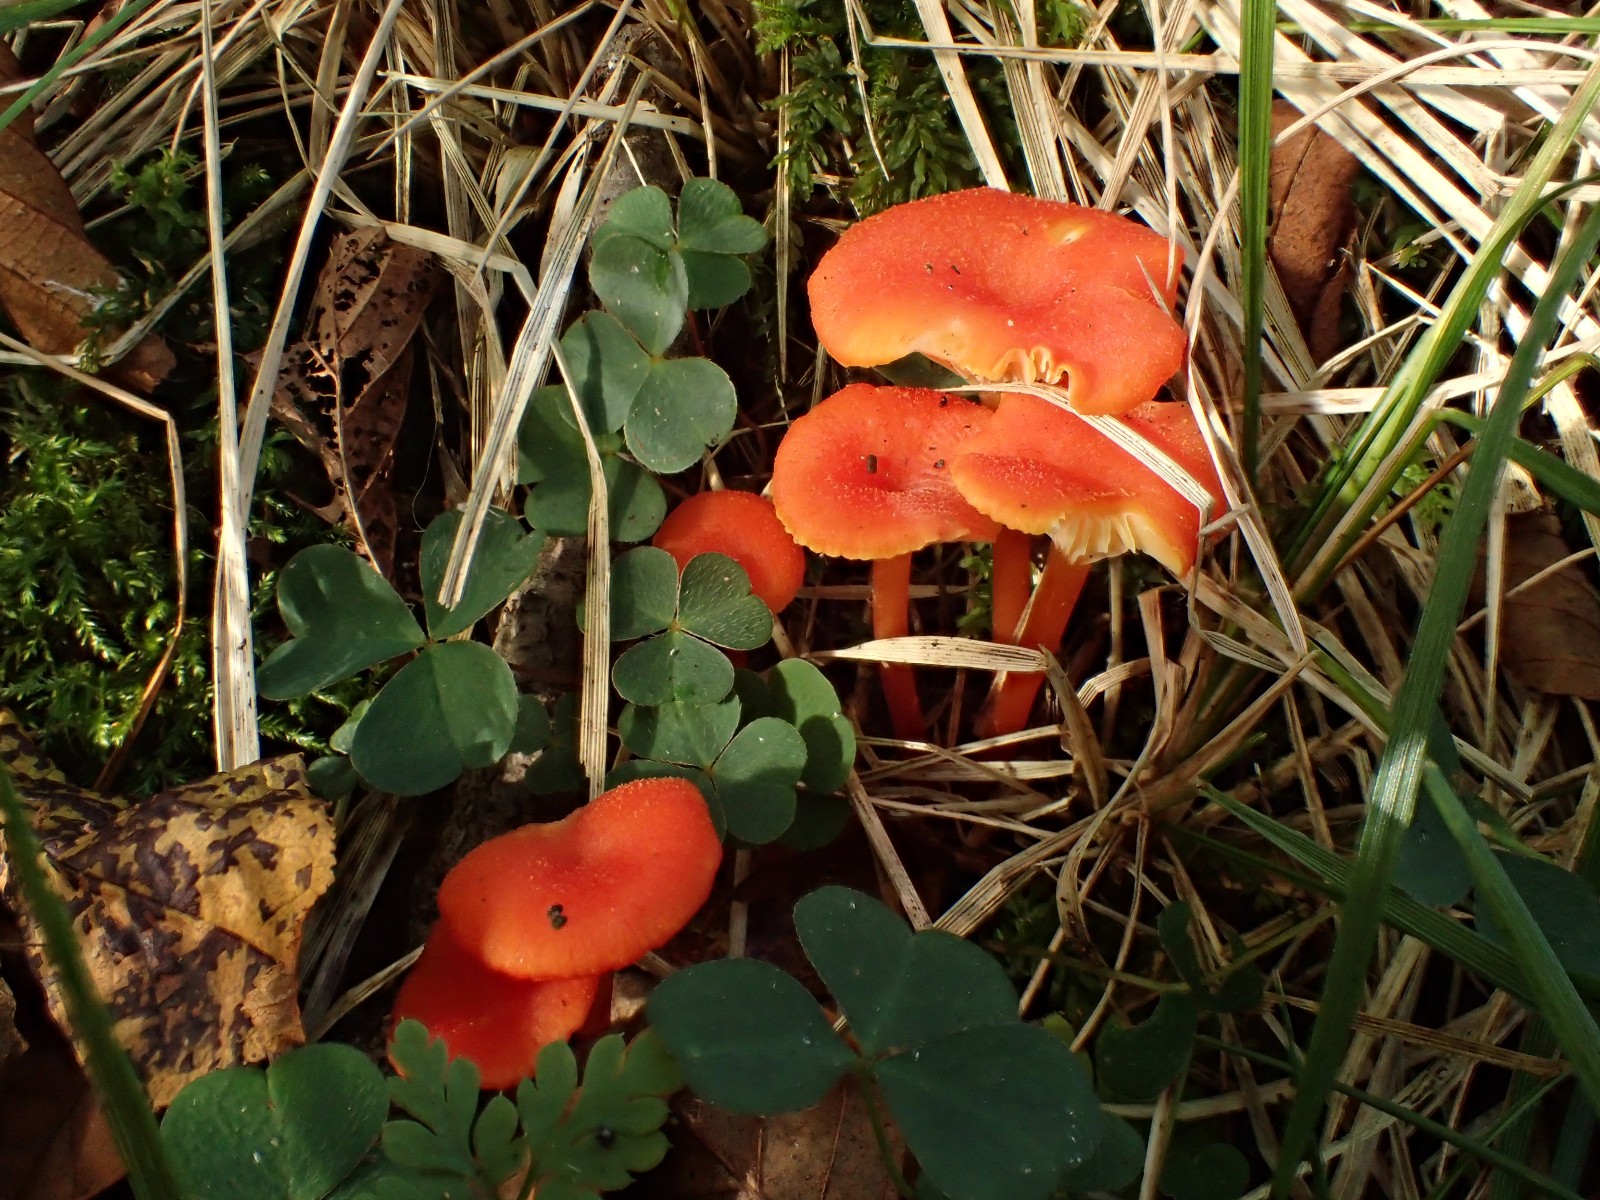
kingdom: Fungi
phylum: Basidiomycota
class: Agaricomycetes
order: Agaricales
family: Hygrophoraceae
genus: Hygrocybe
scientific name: Hygrocybe cantharellus
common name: kantarel-vokshat
